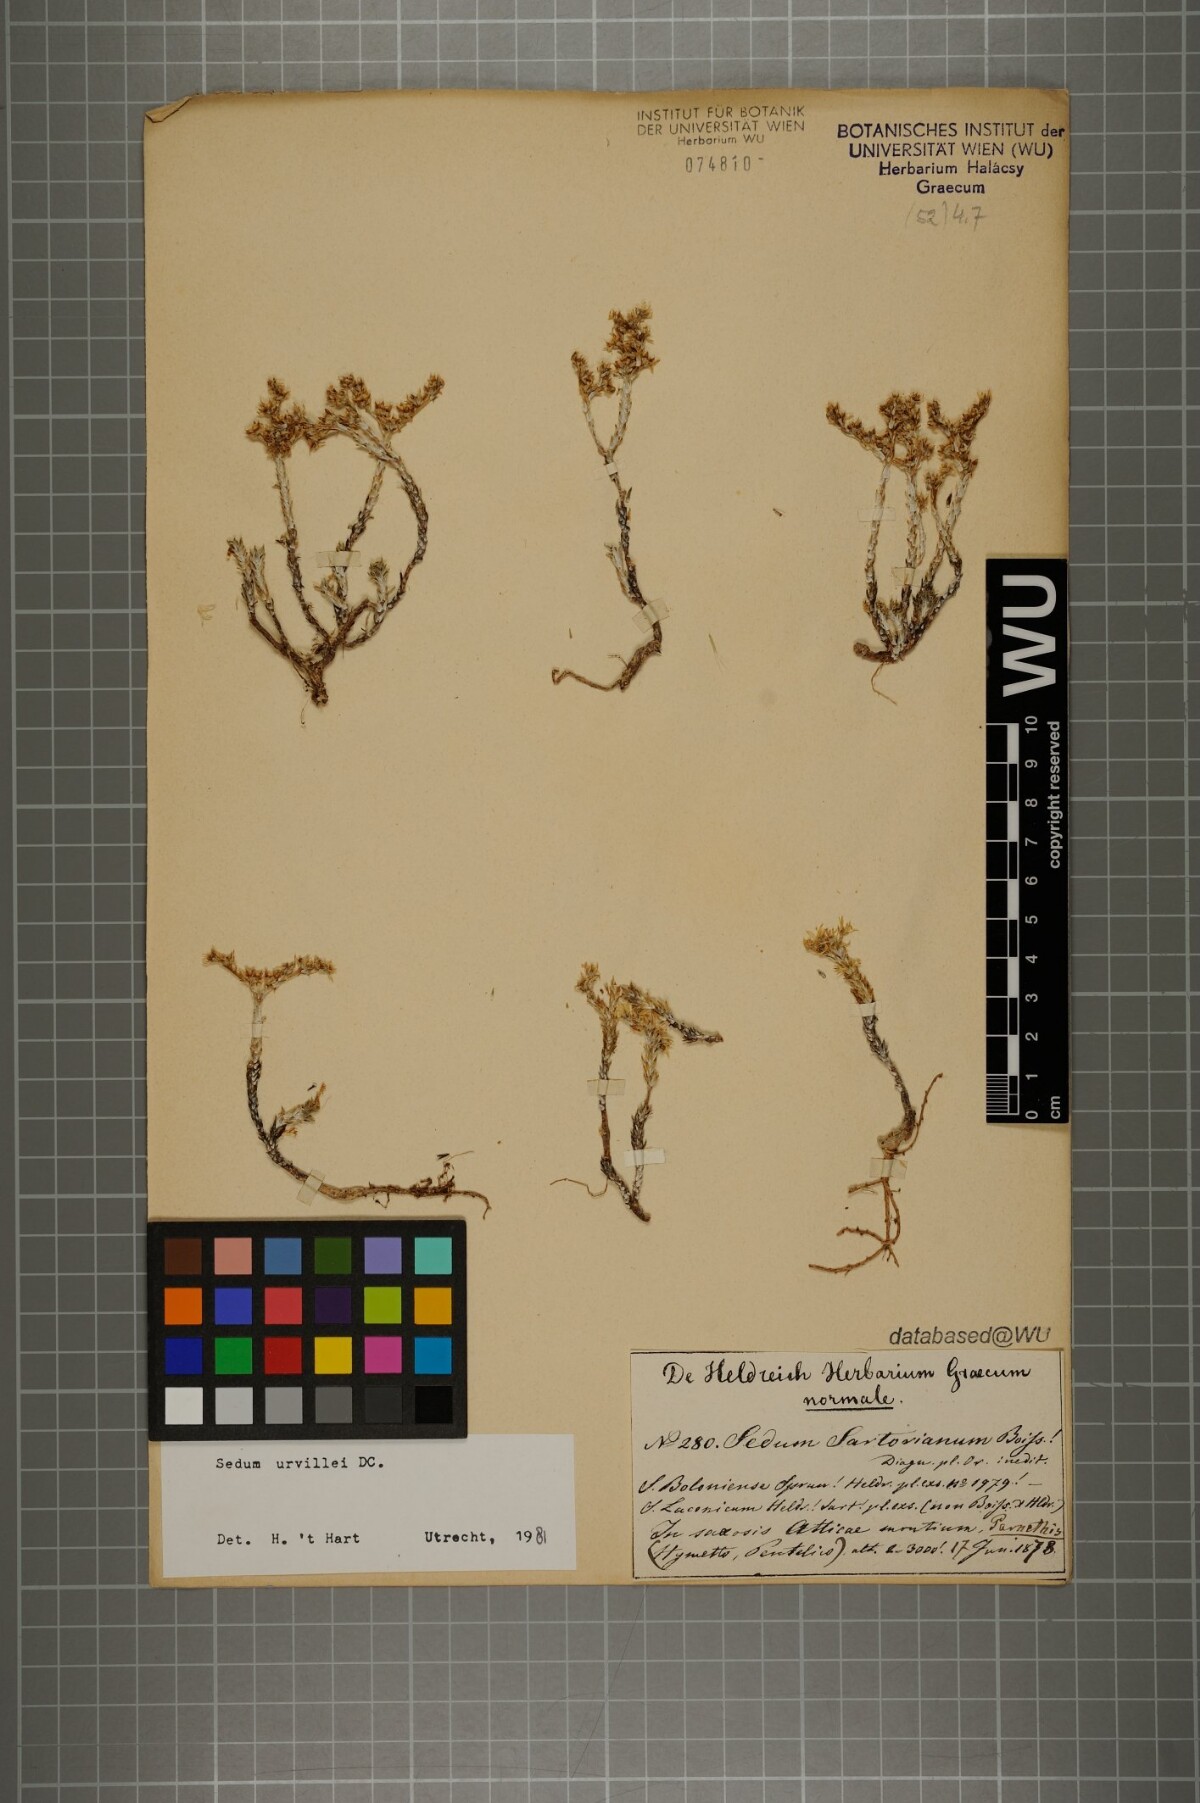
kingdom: Plantae
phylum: Tracheophyta
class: Magnoliopsida
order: Saxifragales
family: Crassulaceae
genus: Sedum
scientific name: Sedum urvillei
